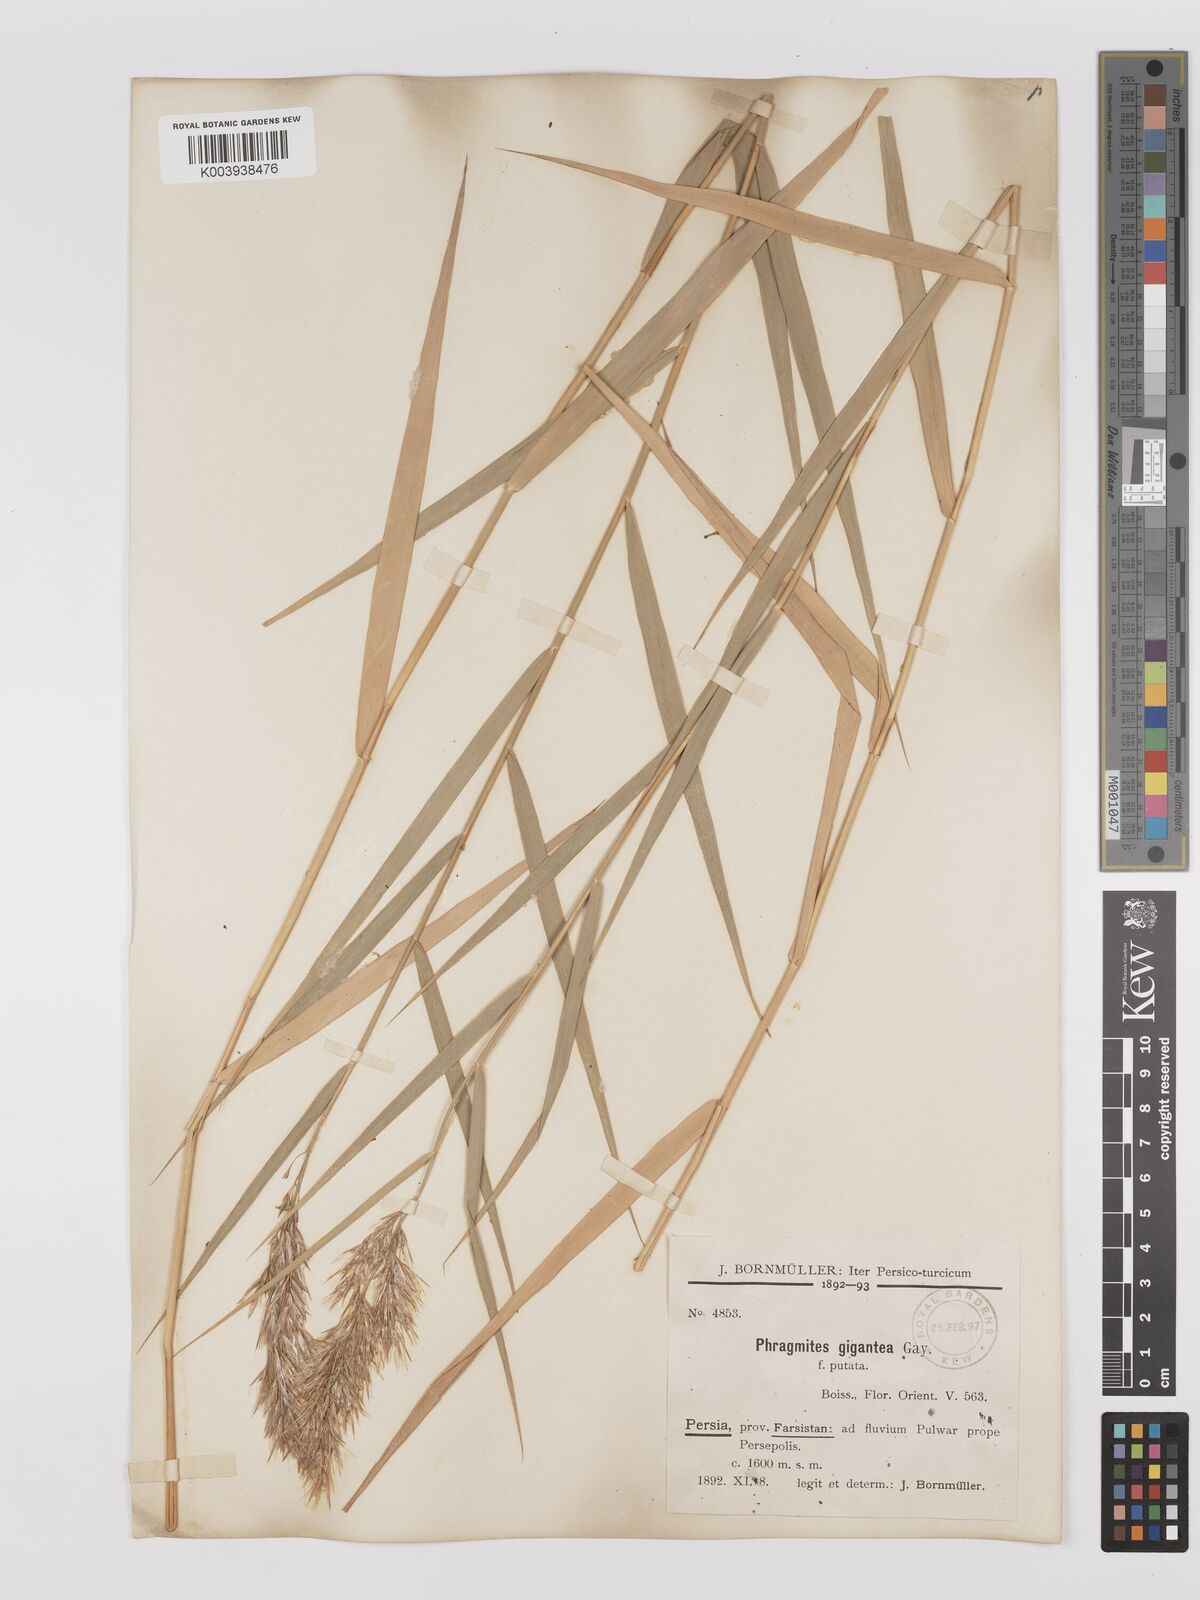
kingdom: Plantae
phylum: Tracheophyta
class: Liliopsida
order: Poales
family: Poaceae
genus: Phragmites
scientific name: Phragmites australis
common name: Common reed
